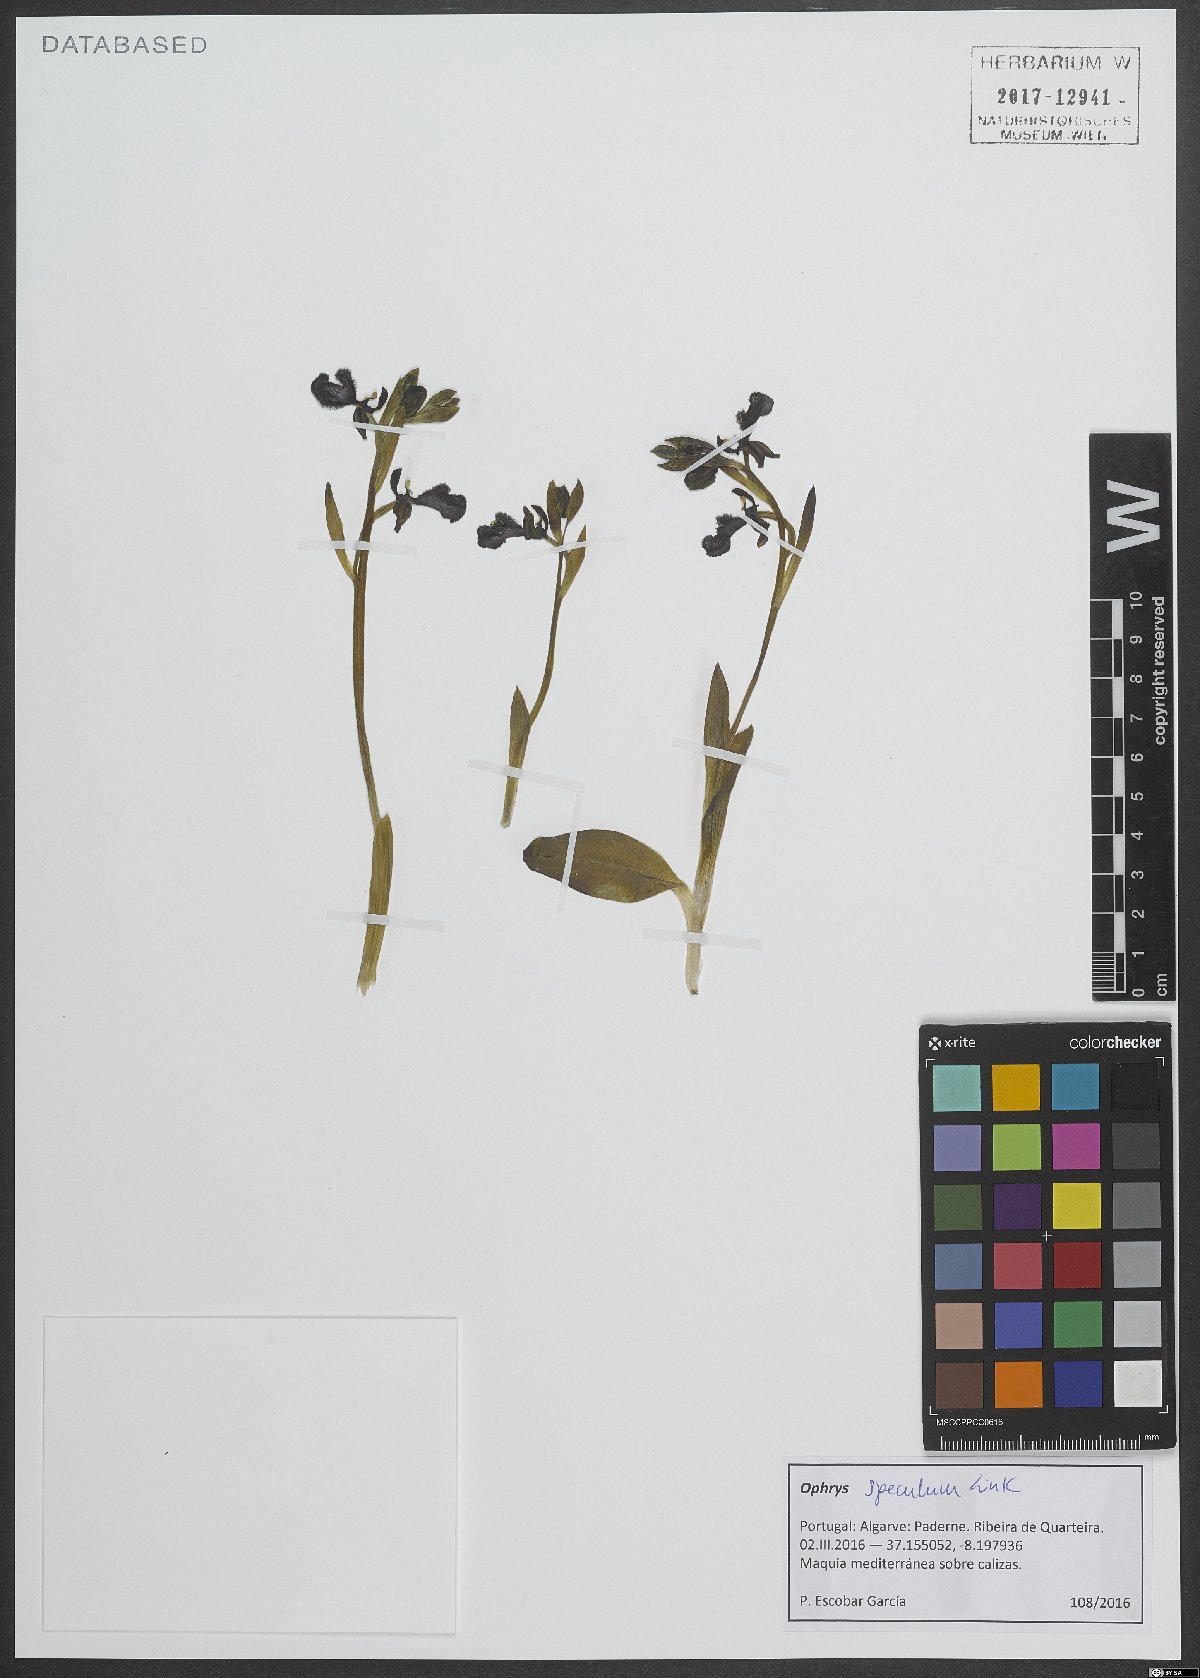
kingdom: Plantae
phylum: Tracheophyta
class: Liliopsida
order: Asparagales
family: Orchidaceae
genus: Ophrys
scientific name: Ophrys speculum
